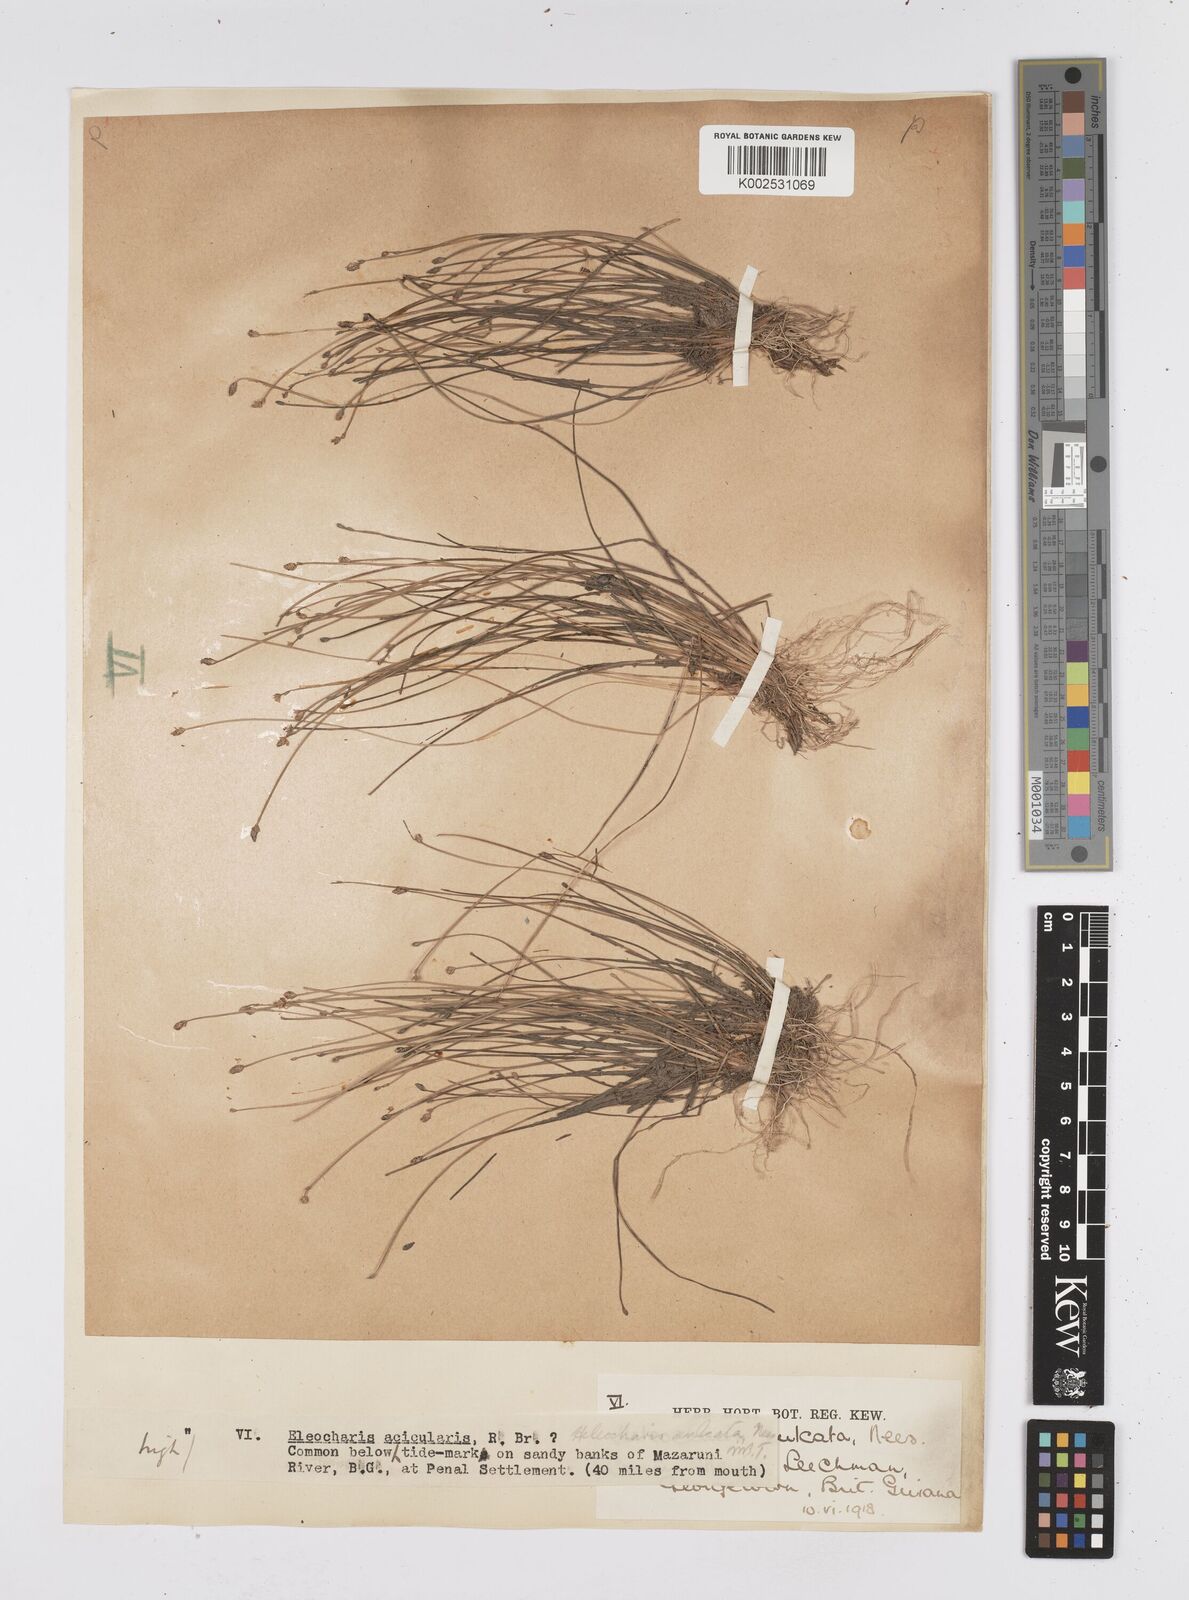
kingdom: Plantae
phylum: Tracheophyta
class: Liliopsida
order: Poales
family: Cyperaceae
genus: Eleocharis
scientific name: Eleocharis filiculmis
